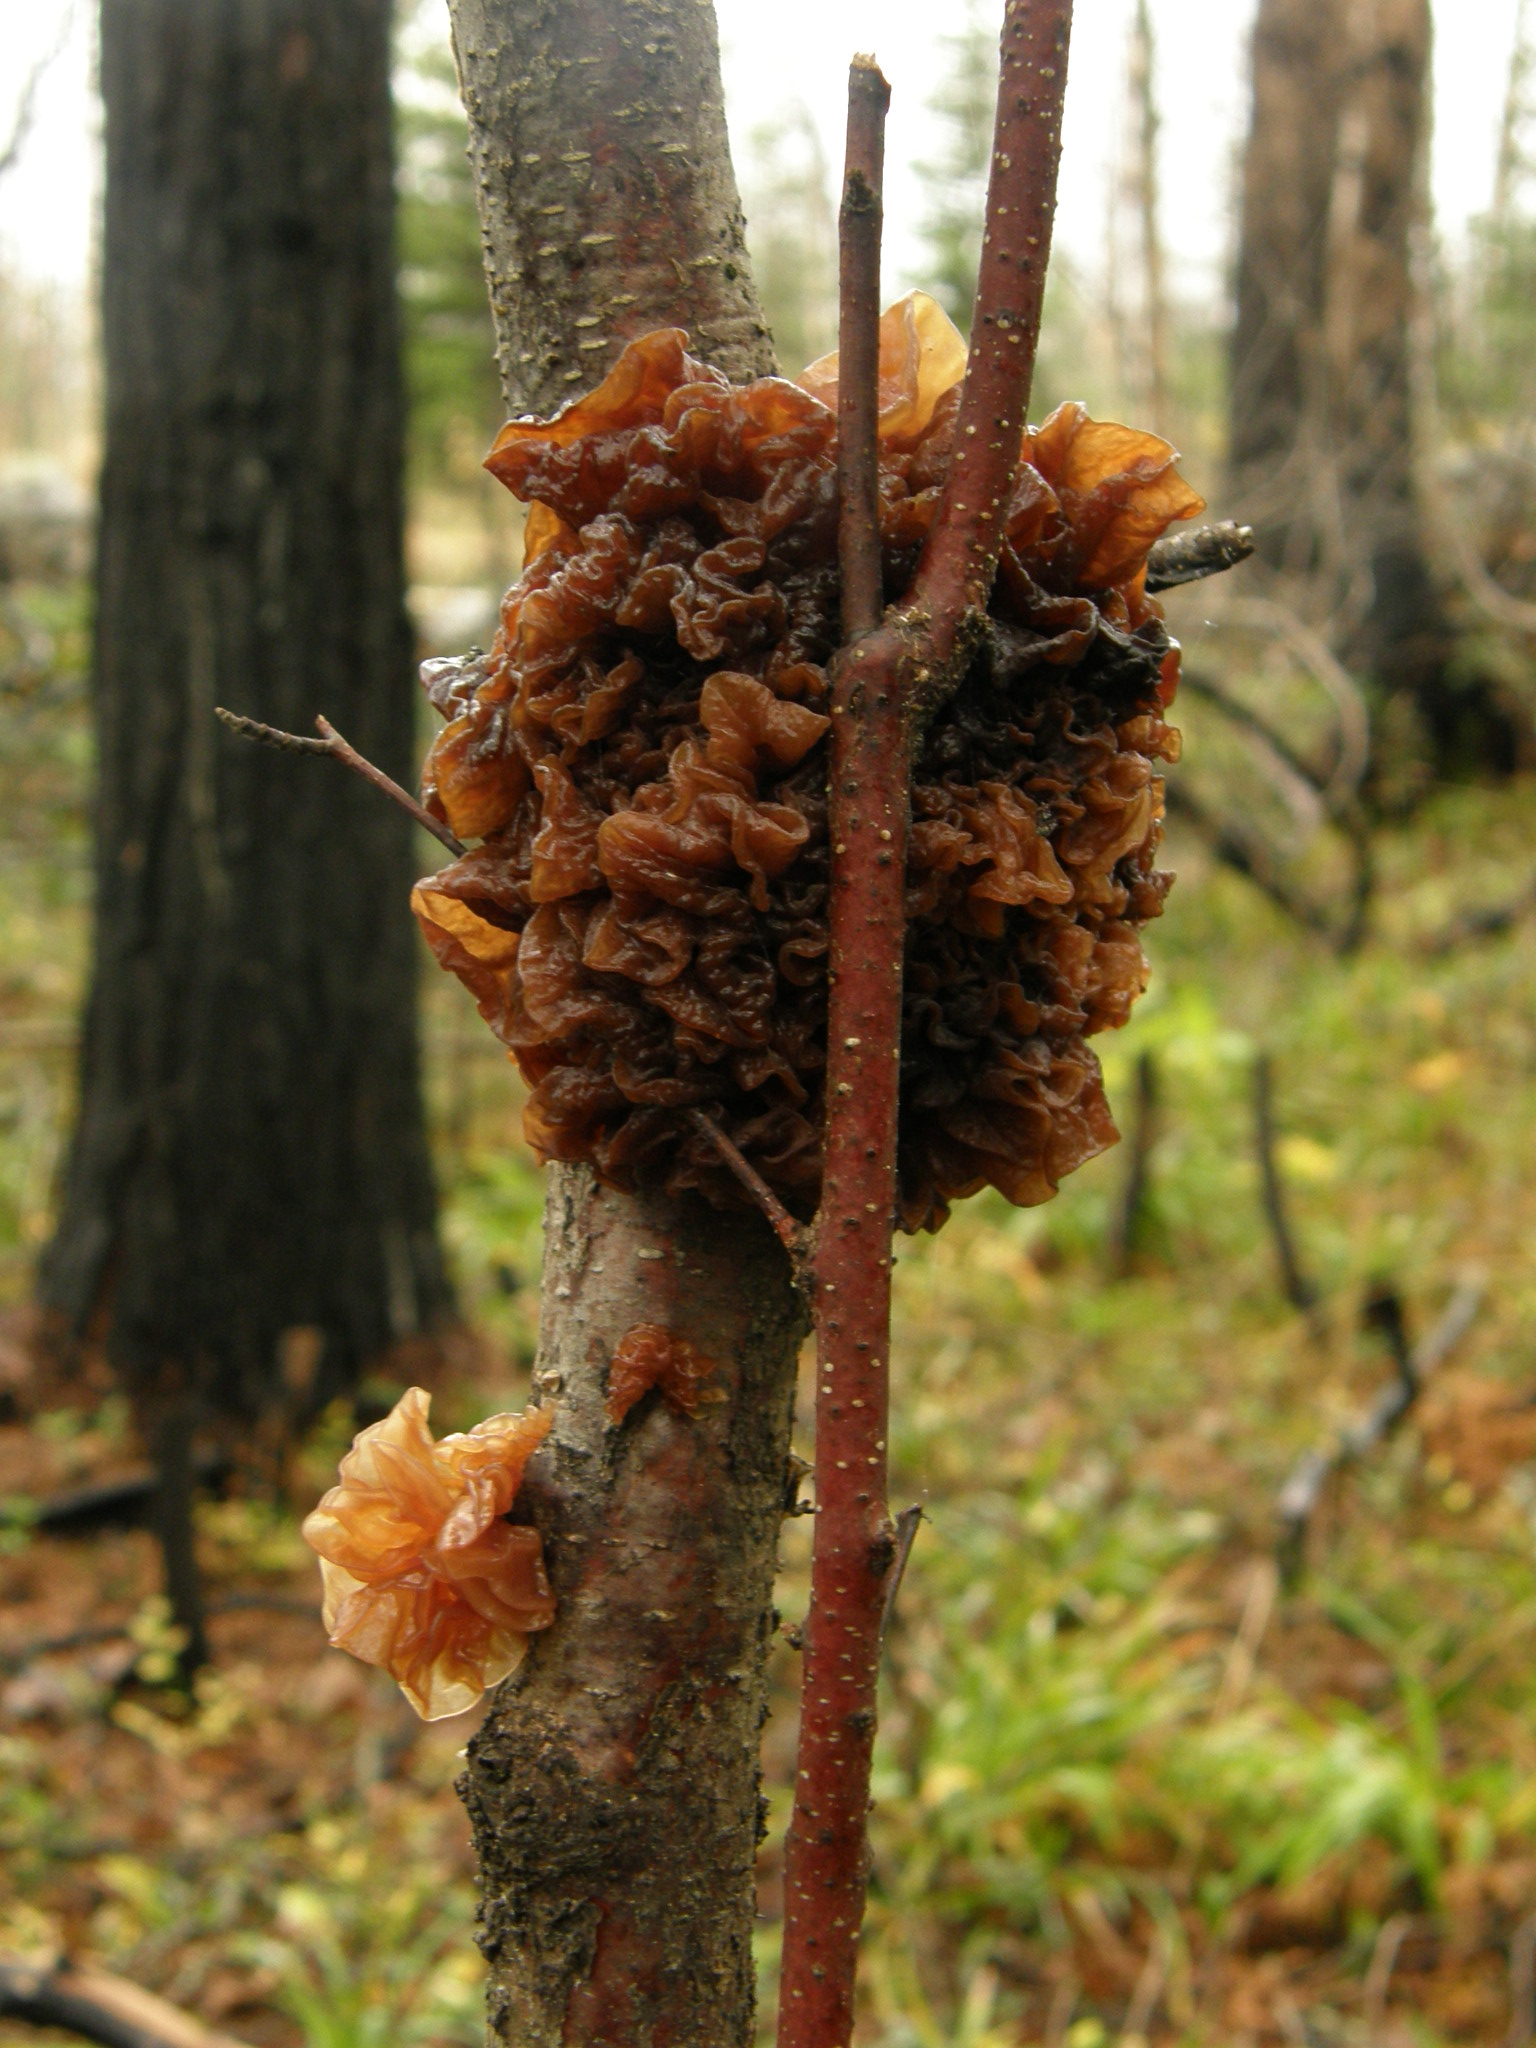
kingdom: Fungi
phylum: Basidiomycota
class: Tremellomycetes
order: Tremellales
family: Tremellaceae
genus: Phaeotremella
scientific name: Phaeotremella foliacea
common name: Leafy brain
